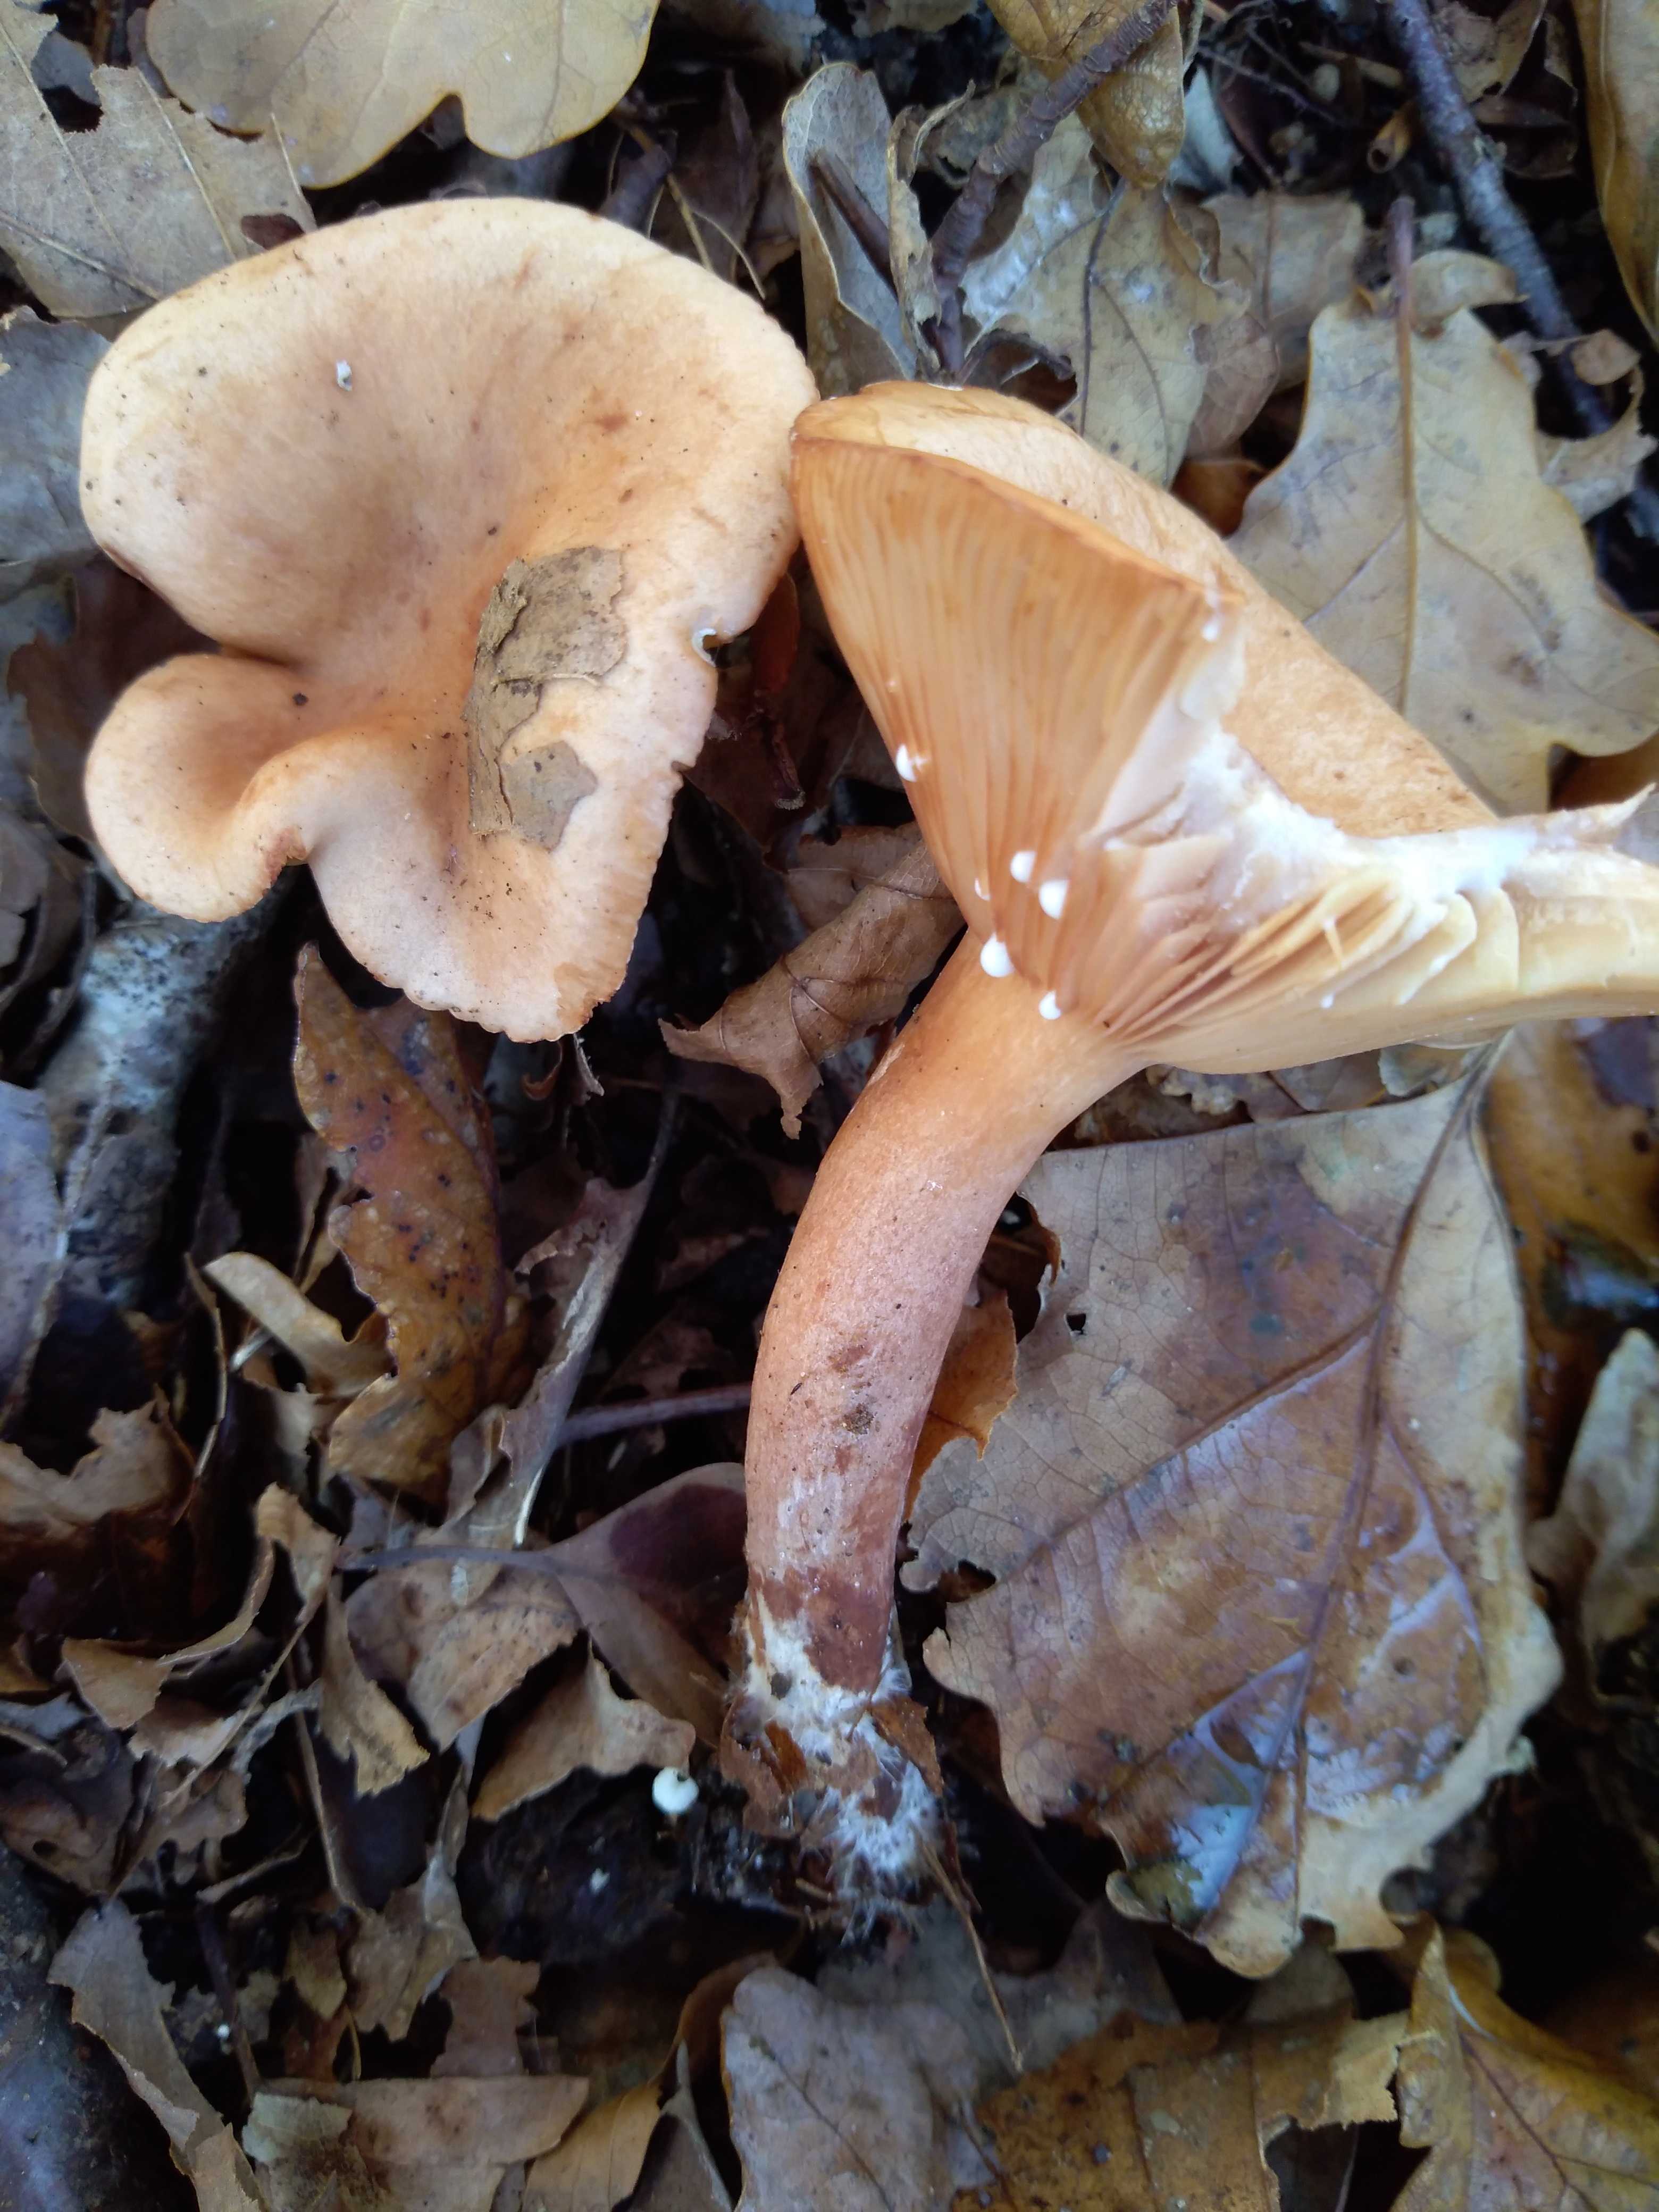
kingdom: Fungi
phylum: Basidiomycota
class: Agaricomycetes
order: Russulales
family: Russulaceae
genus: Lactarius
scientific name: Lactarius
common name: mælkehat
